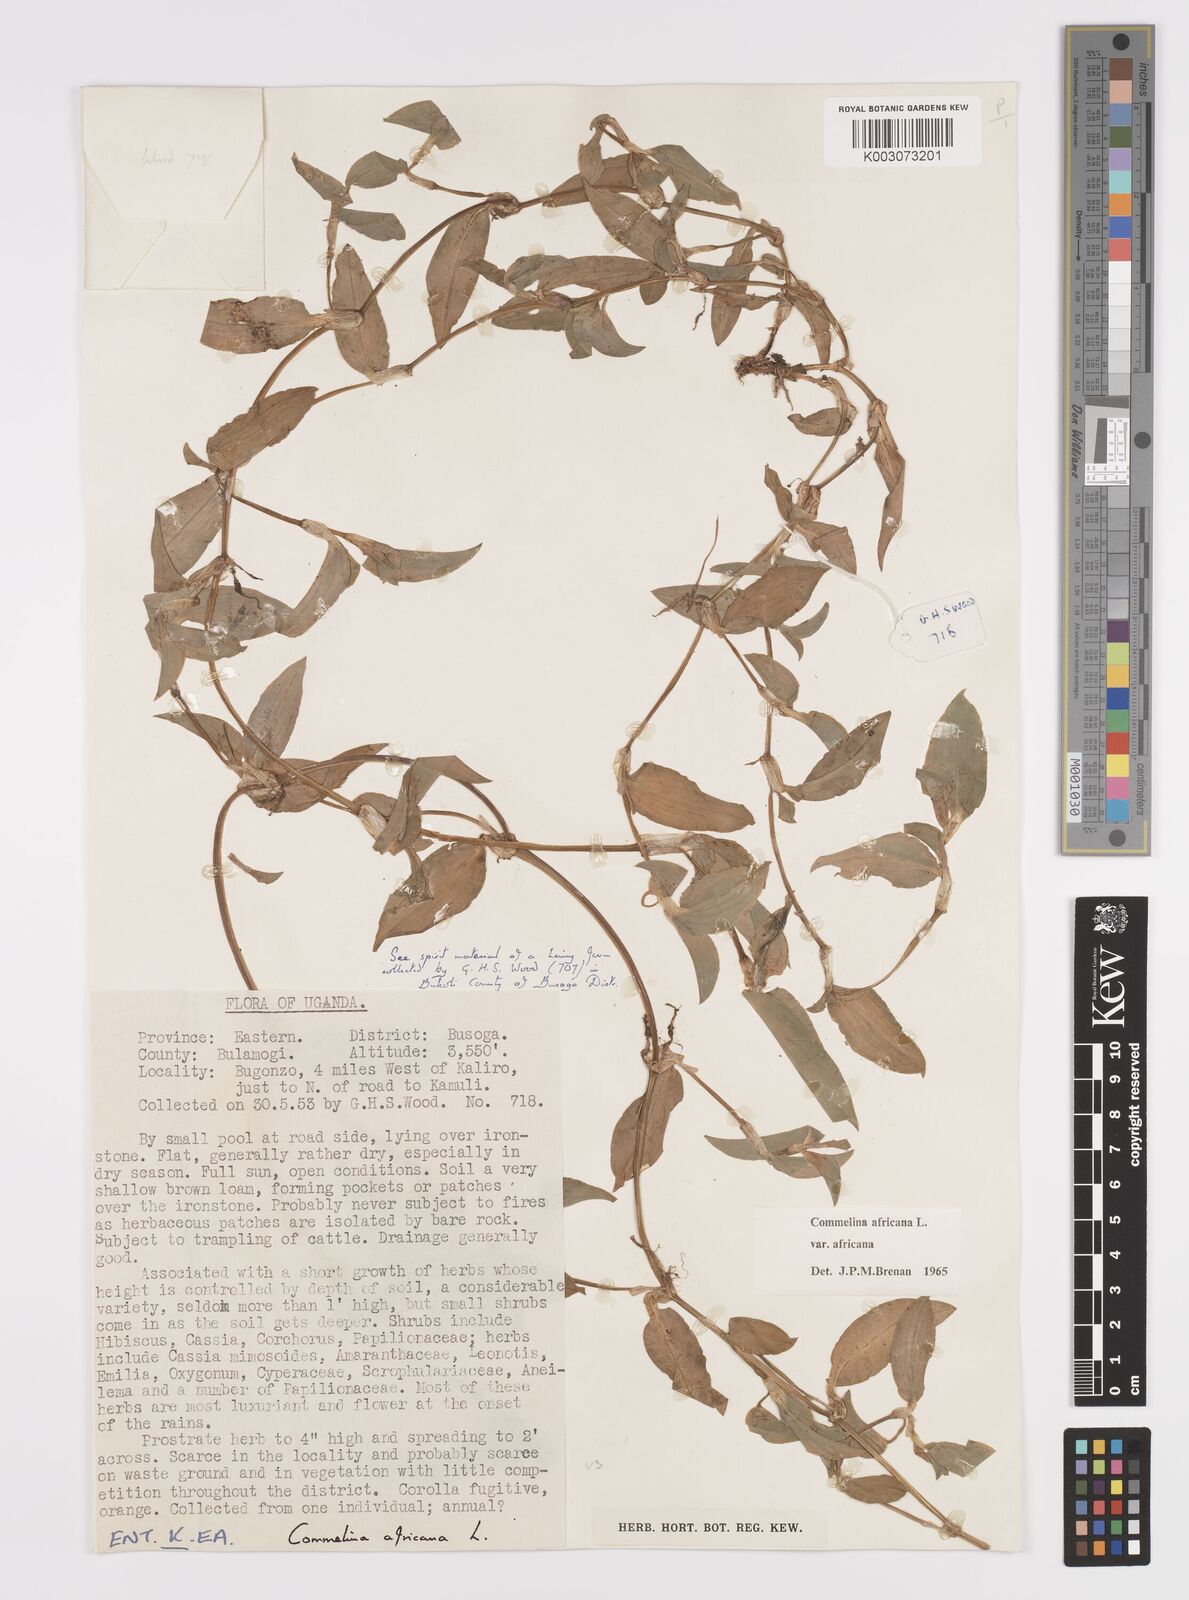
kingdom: Plantae
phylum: Tracheophyta
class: Liliopsida
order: Commelinales
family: Commelinaceae
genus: Commelina
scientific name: Commelina africana
